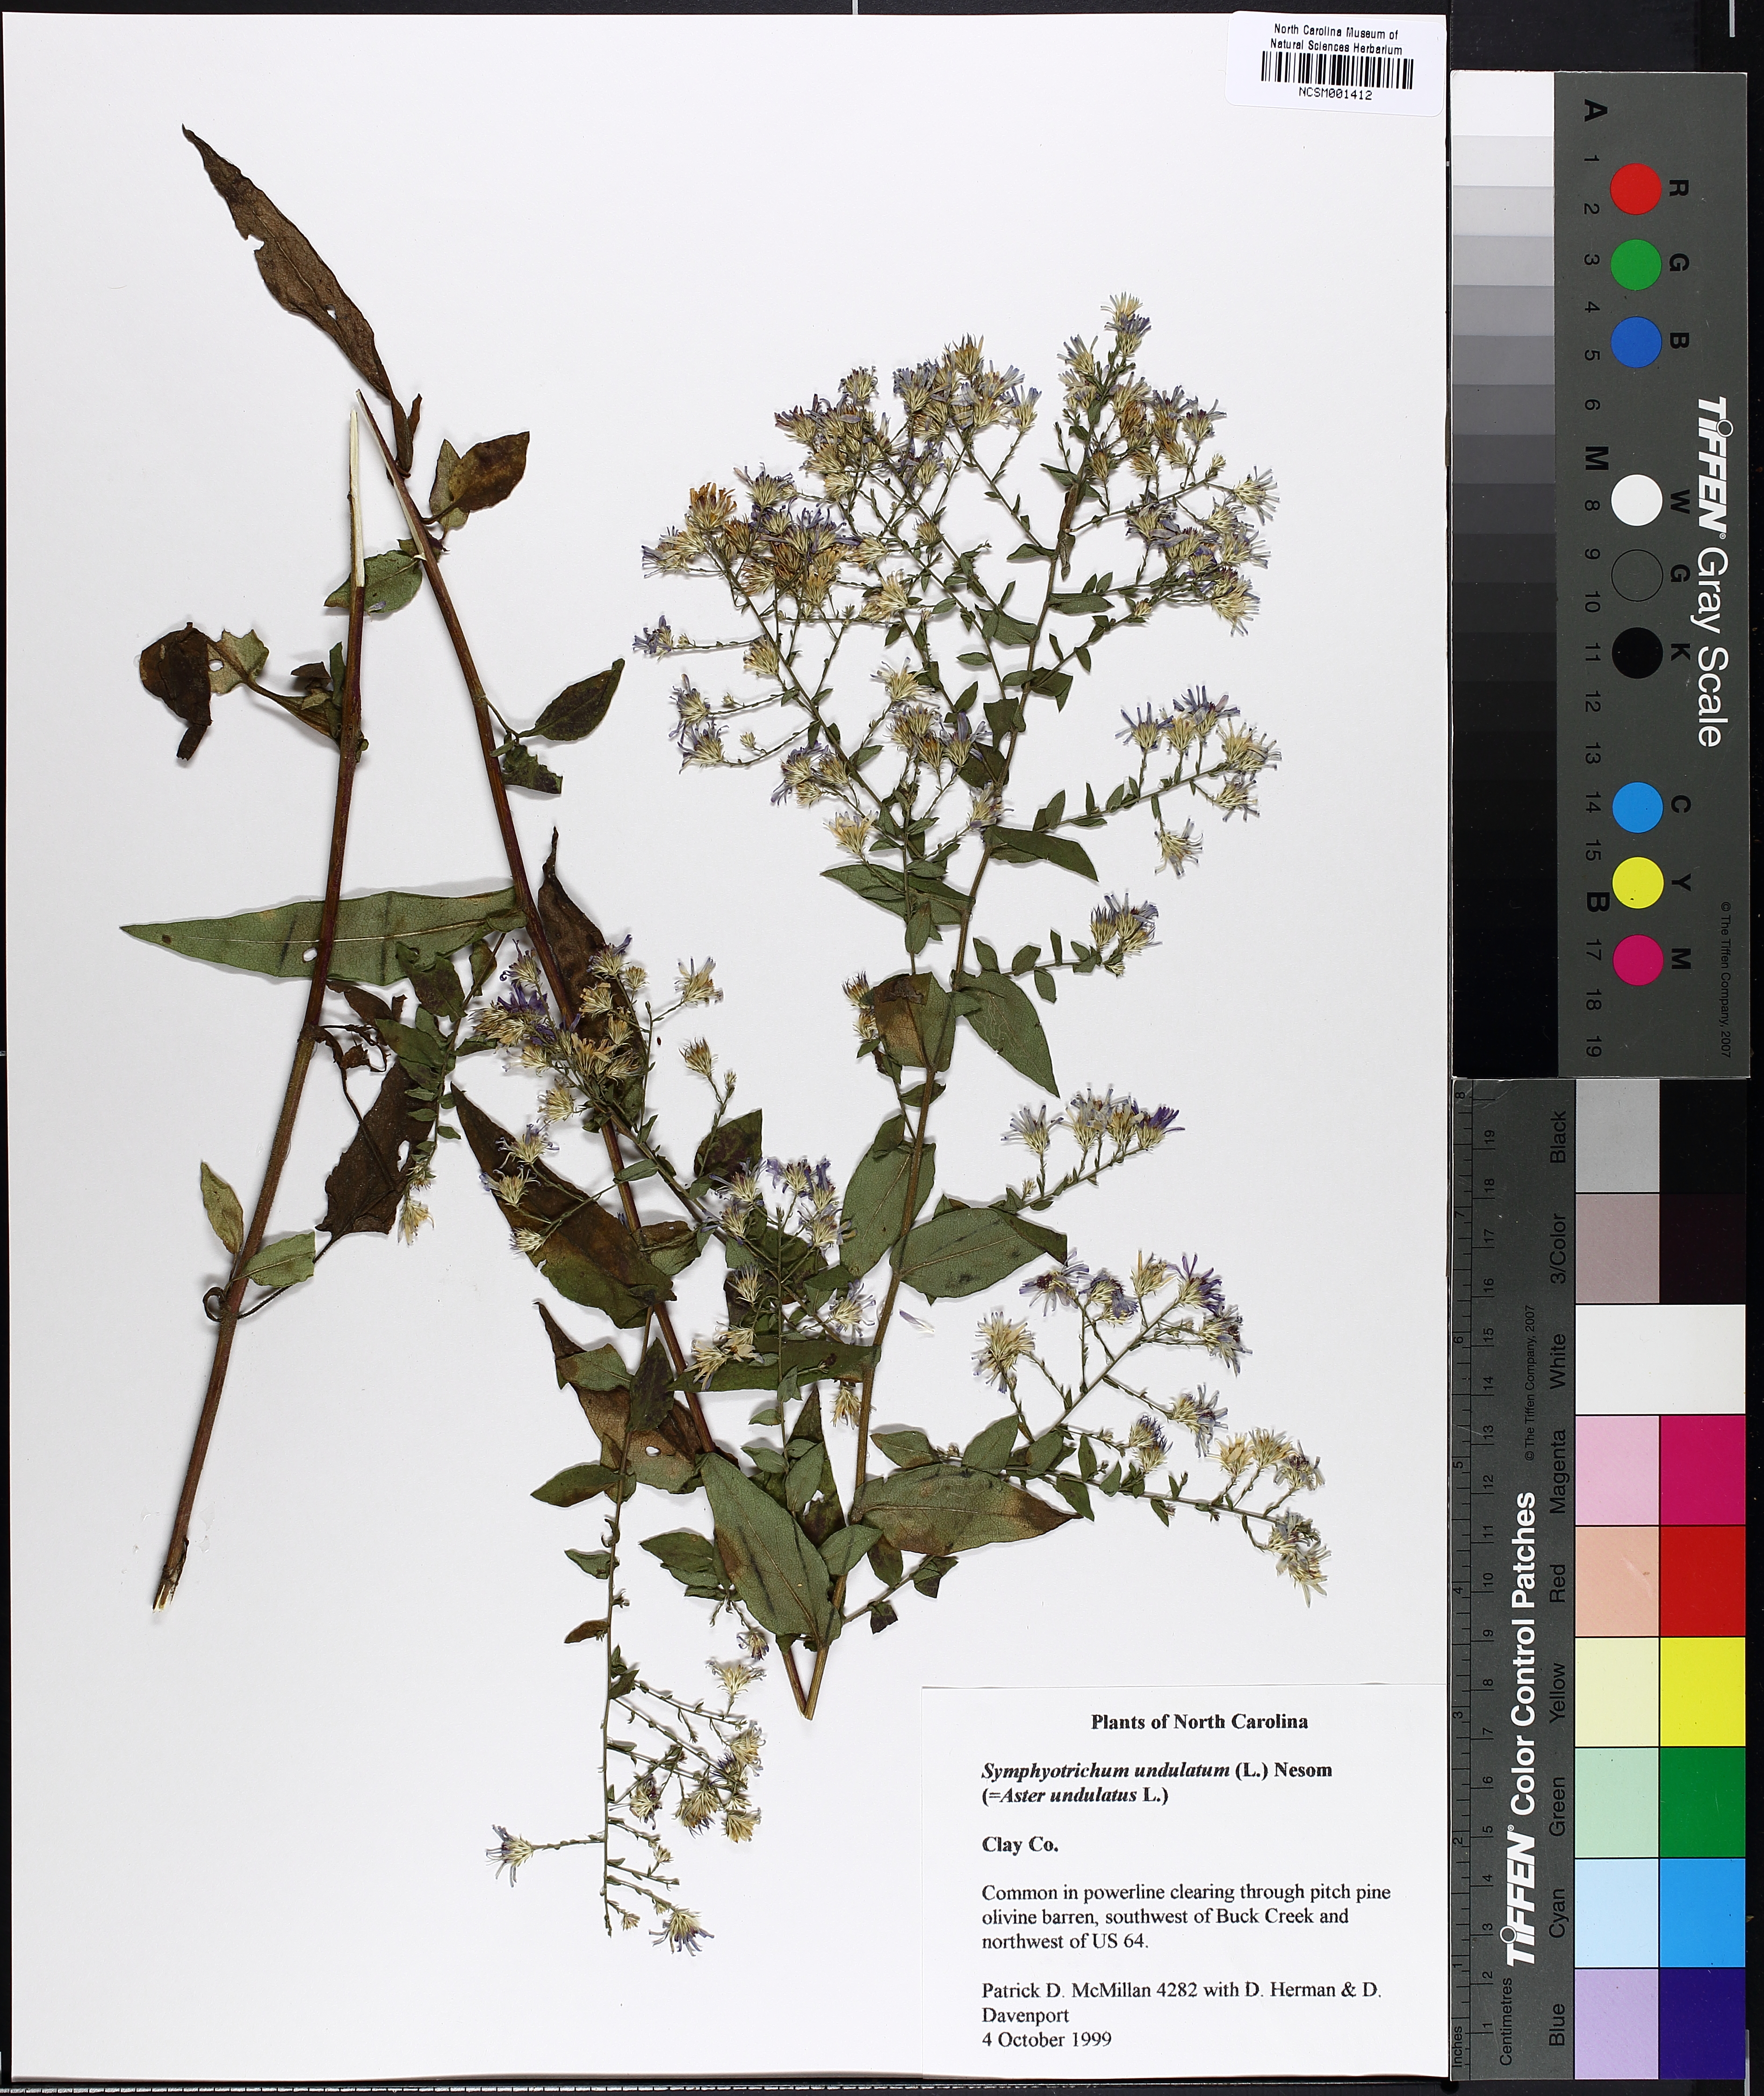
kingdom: Plantae
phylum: Tracheophyta
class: Magnoliopsida
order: Asterales
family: Asteraceae
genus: Symphyotrichum
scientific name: Symphyotrichum undulatum
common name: Clasping heart-leaf aster
